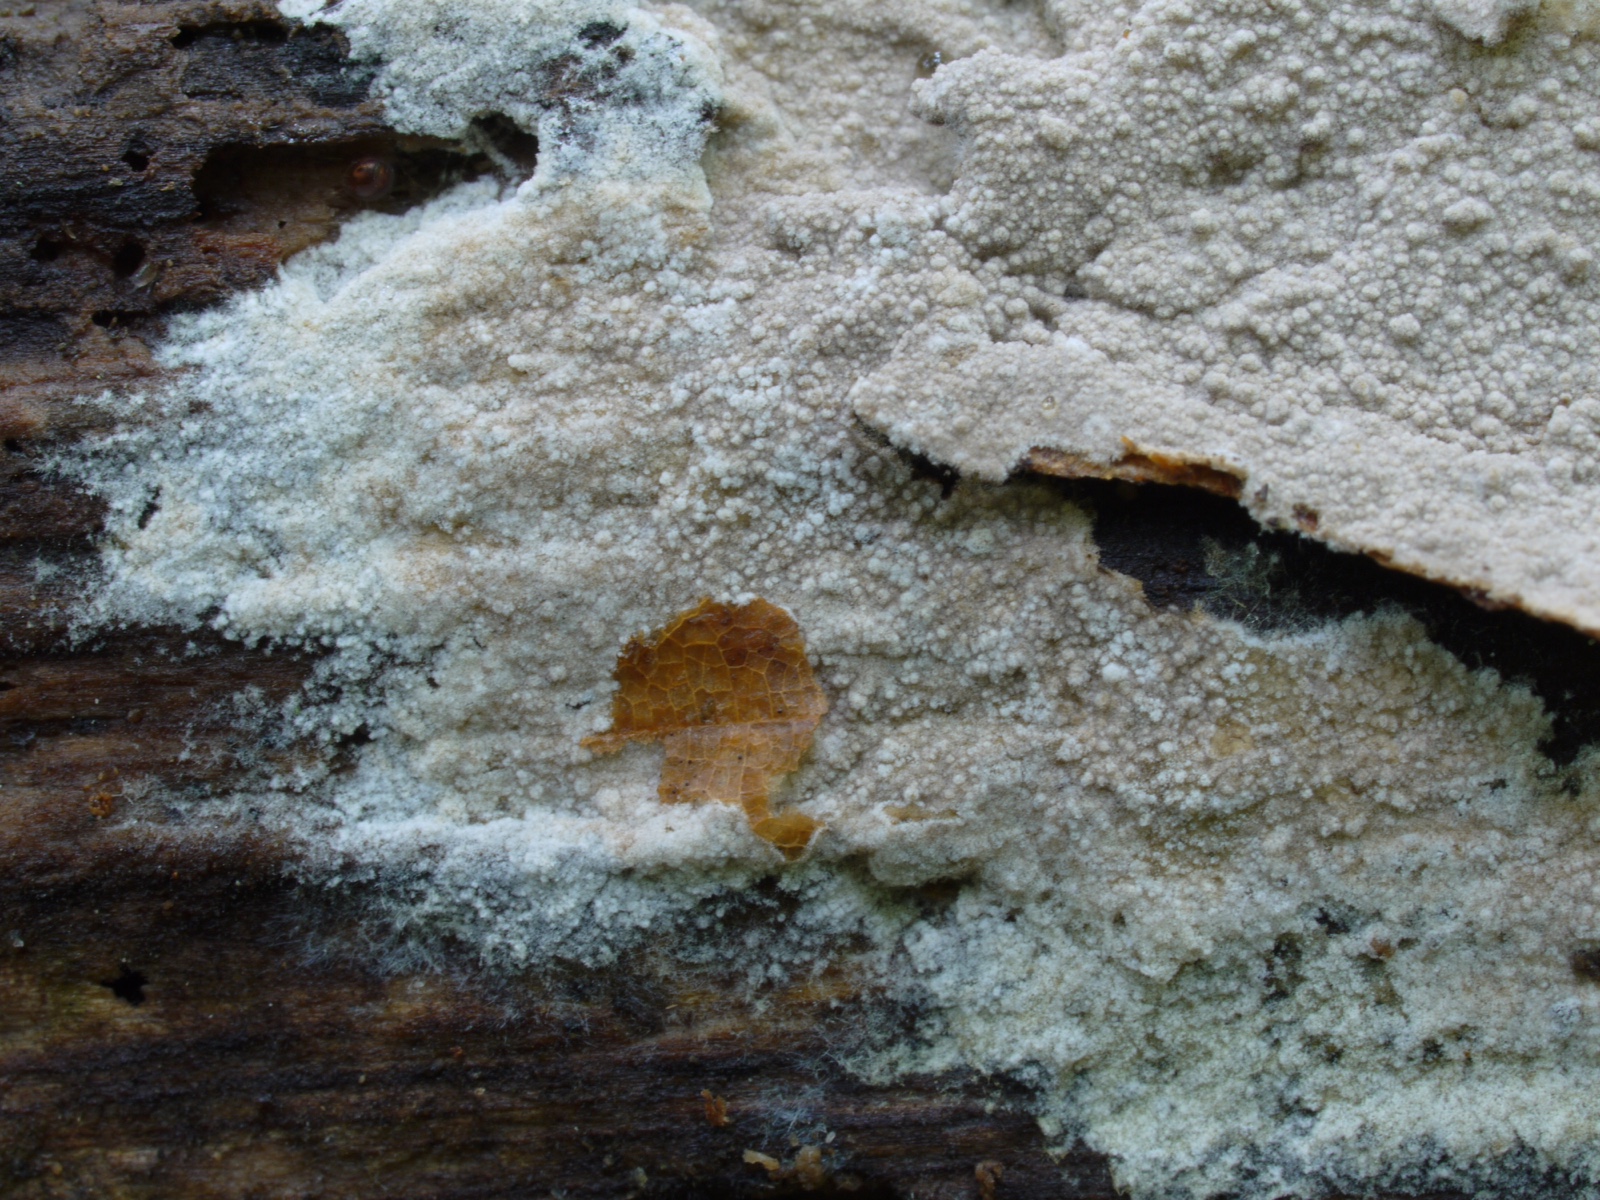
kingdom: Fungi
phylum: Basidiomycota
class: Agaricomycetes
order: Thelephorales
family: Thelephoraceae
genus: Tomentella
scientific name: Tomentella atroarenicolor
